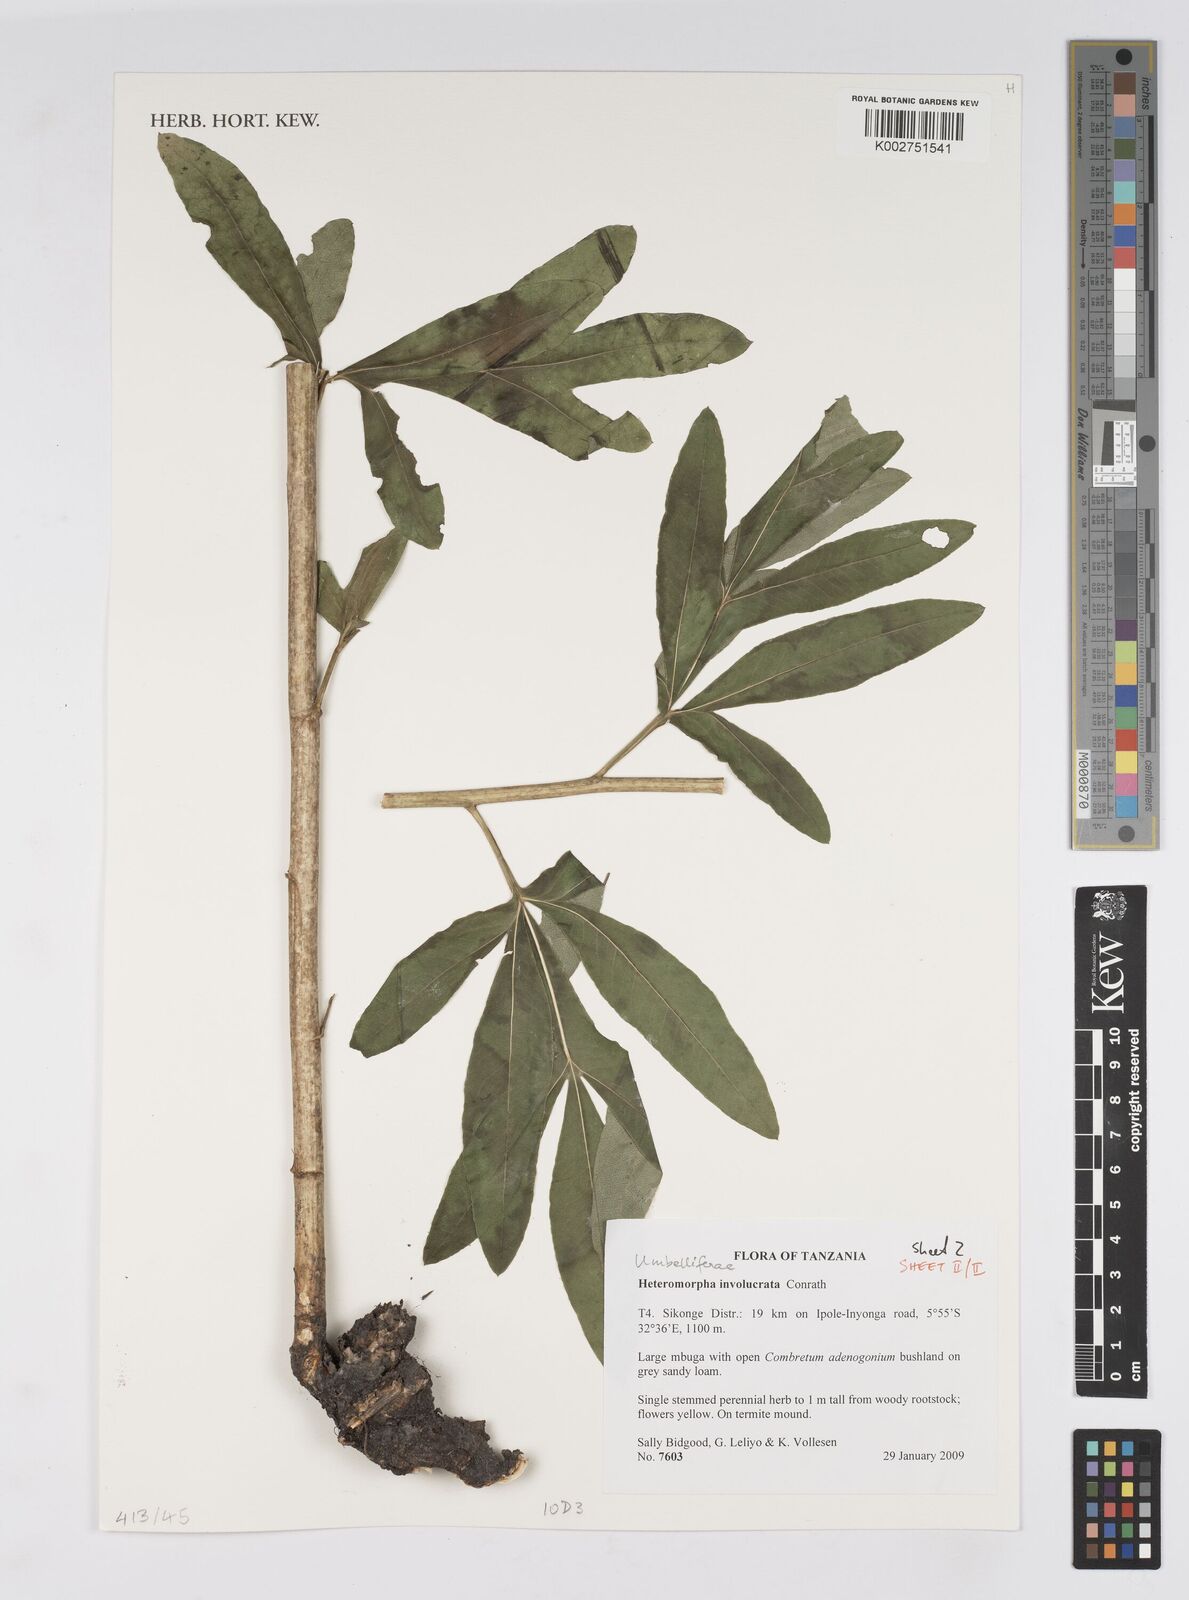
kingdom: Plantae
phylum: Tracheophyta
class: Magnoliopsida
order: Apiales
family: Apiaceae
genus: Heteromorpha
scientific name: Heteromorpha involucrata
